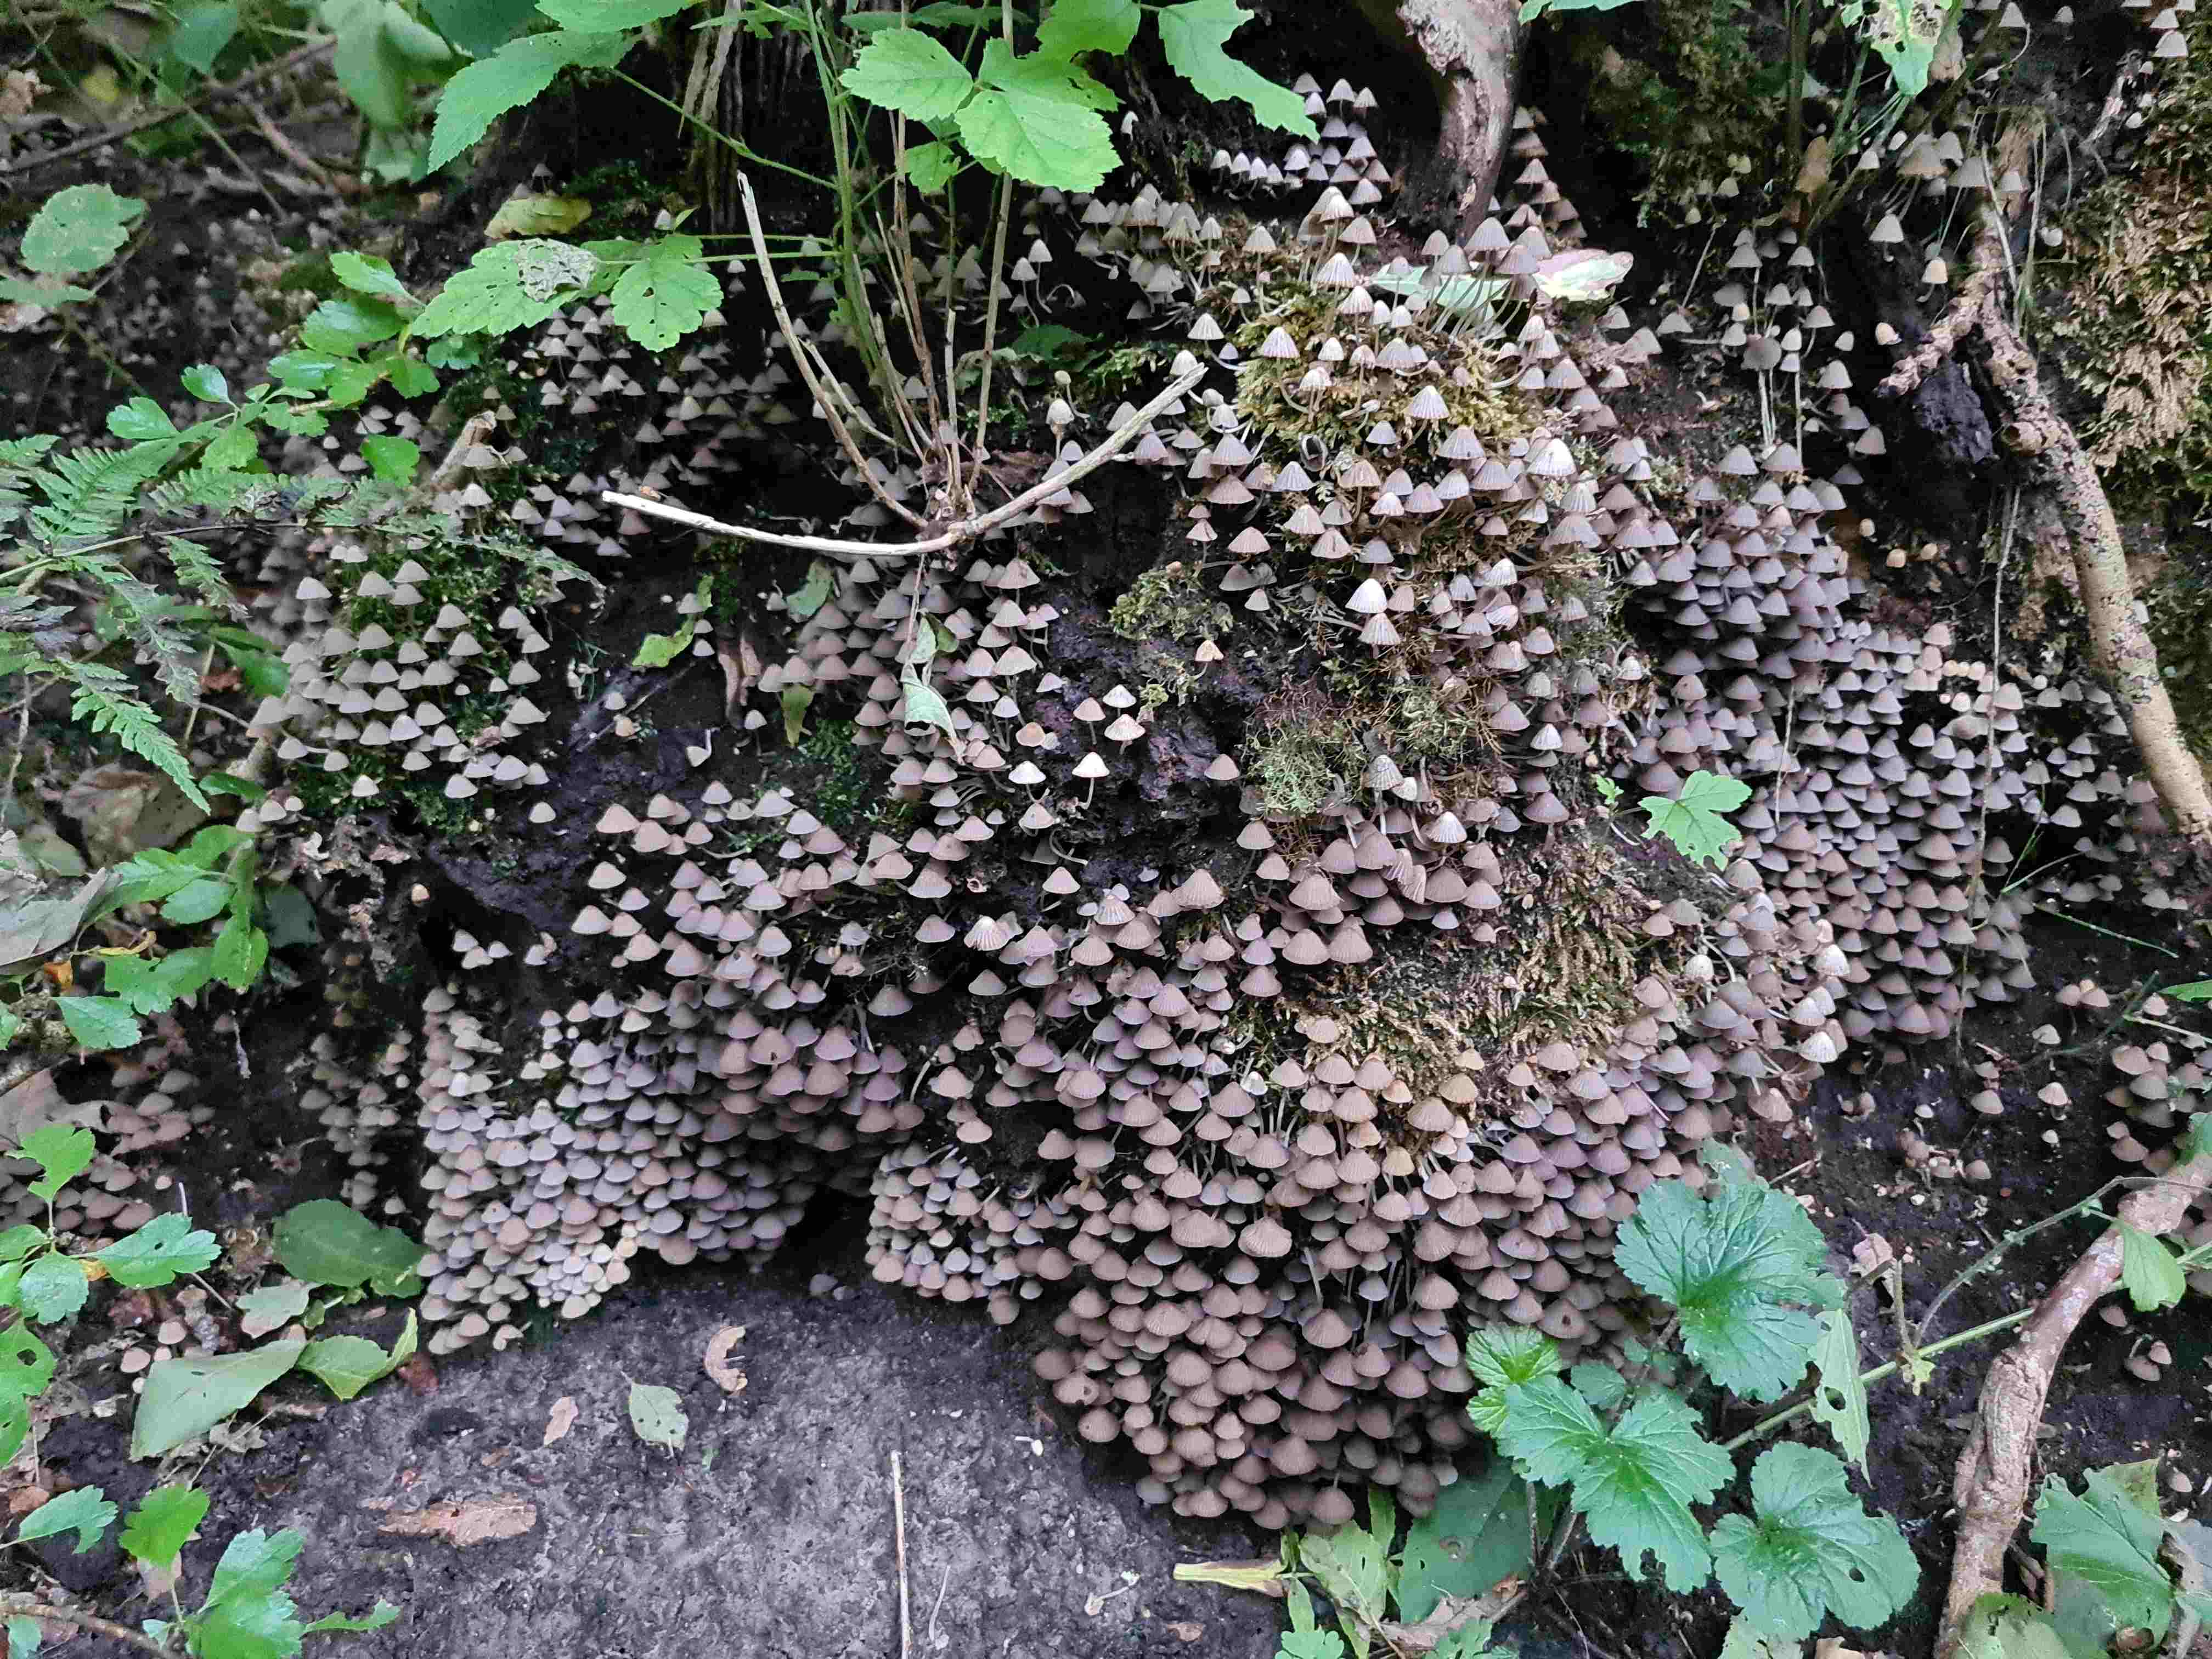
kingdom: Fungi
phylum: Basidiomycota
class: Agaricomycetes
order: Agaricales
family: Psathyrellaceae
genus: Coprinellus
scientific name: Coprinellus disseminatus
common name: bredsået blækhat
